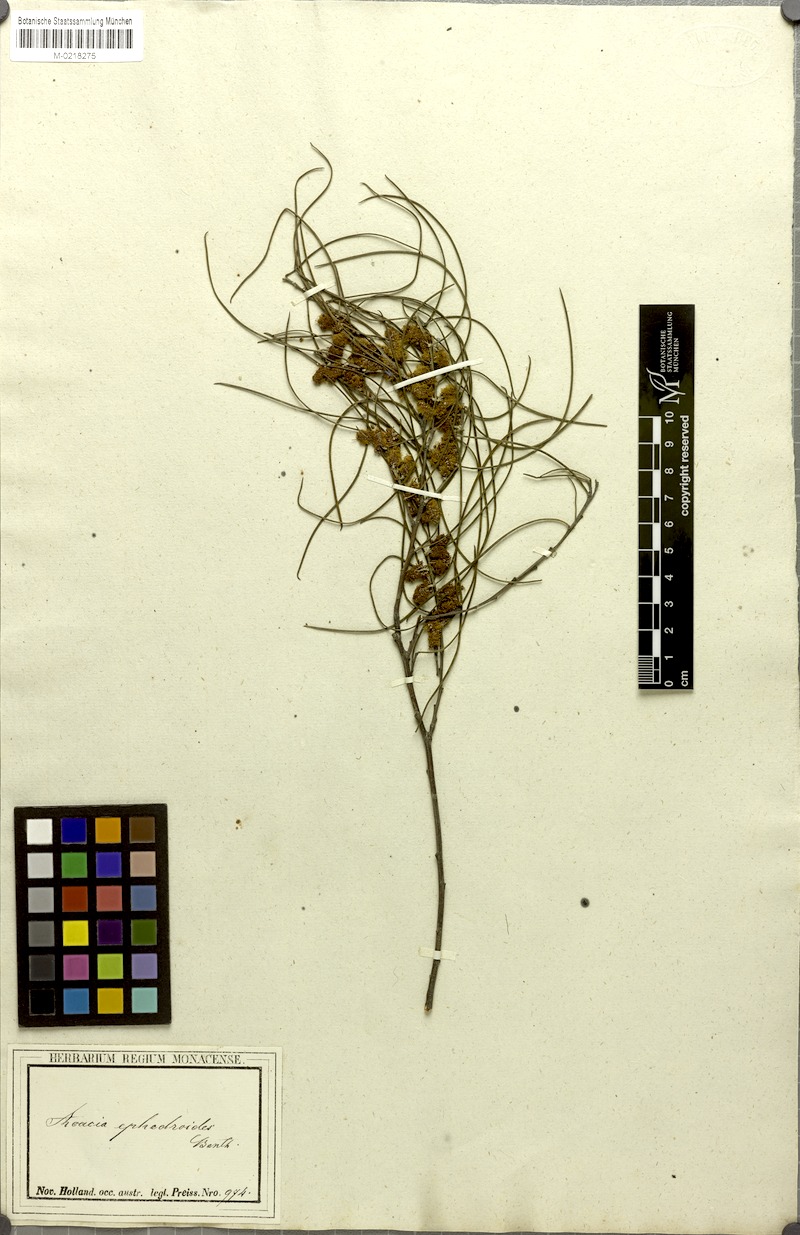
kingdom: Plantae
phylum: Tracheophyta
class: Magnoliopsida
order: Fabales
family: Fabaceae
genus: Acacia
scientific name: Acacia ephedroides
